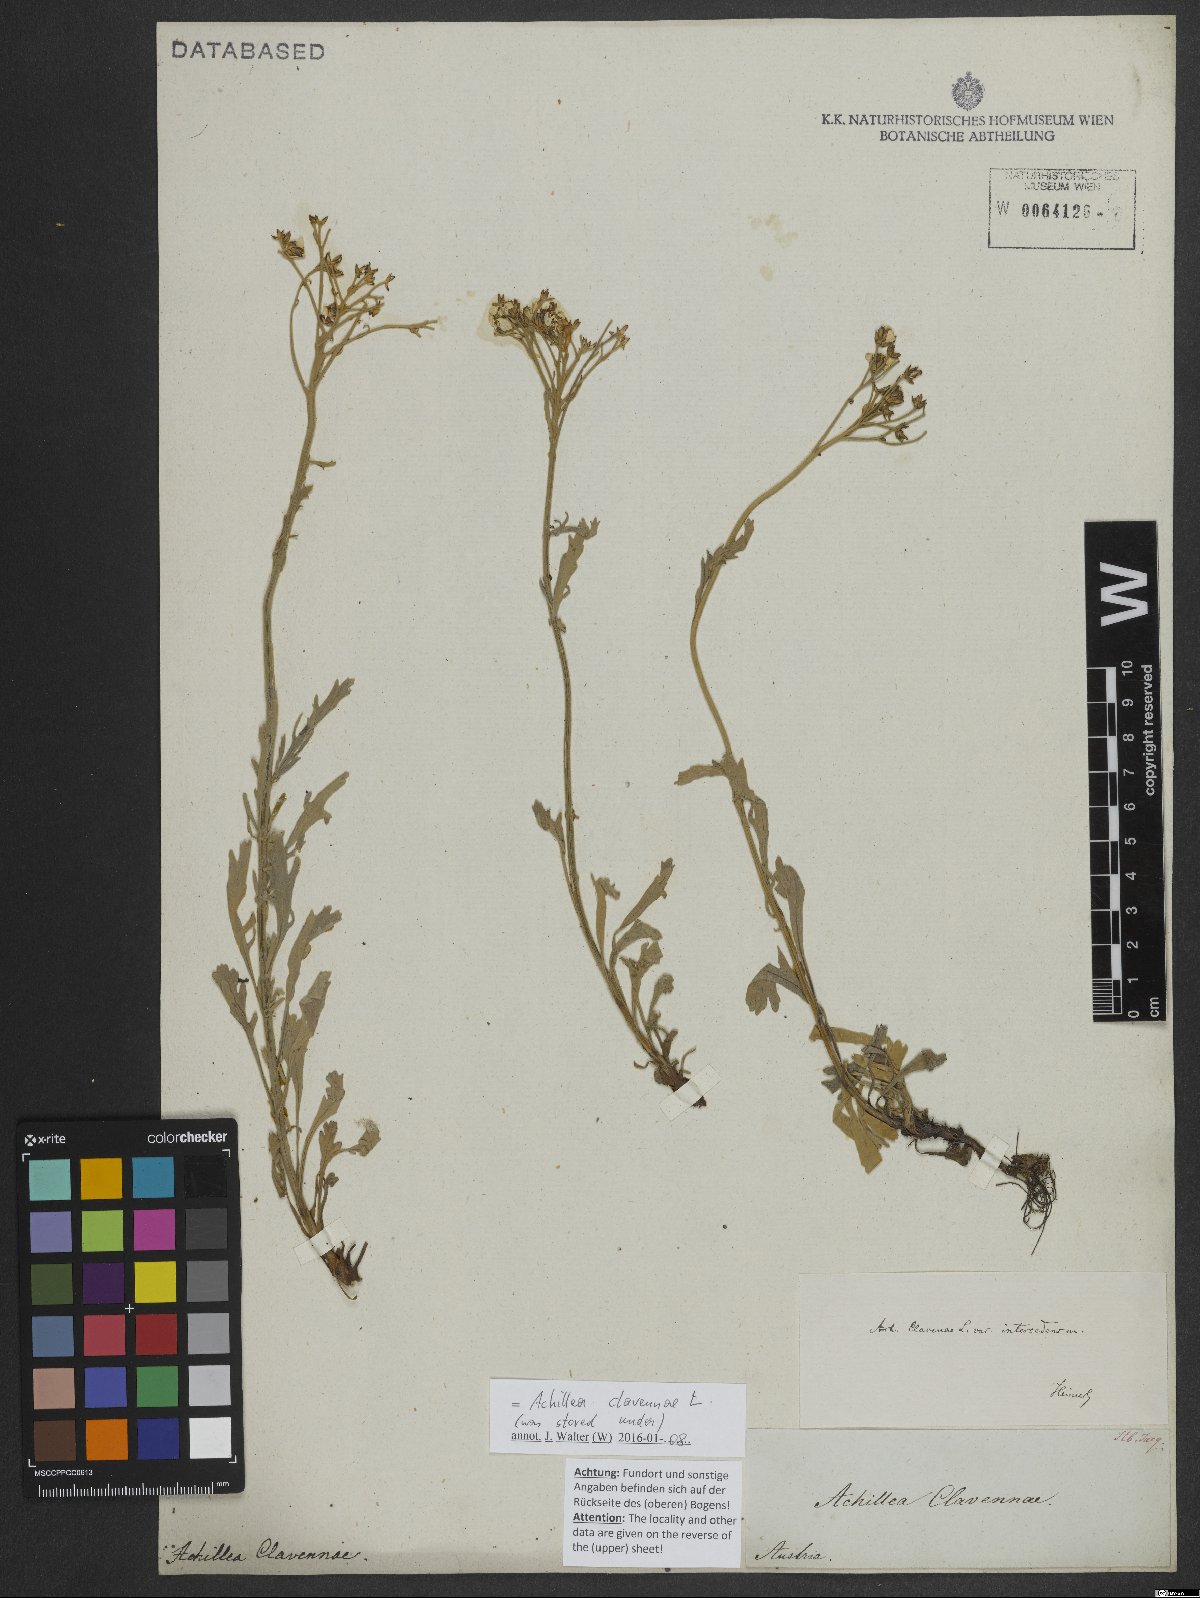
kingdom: Plantae
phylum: Tracheophyta
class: Magnoliopsida
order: Asterales
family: Asteraceae
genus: Achillea
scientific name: Achillea clavennae
